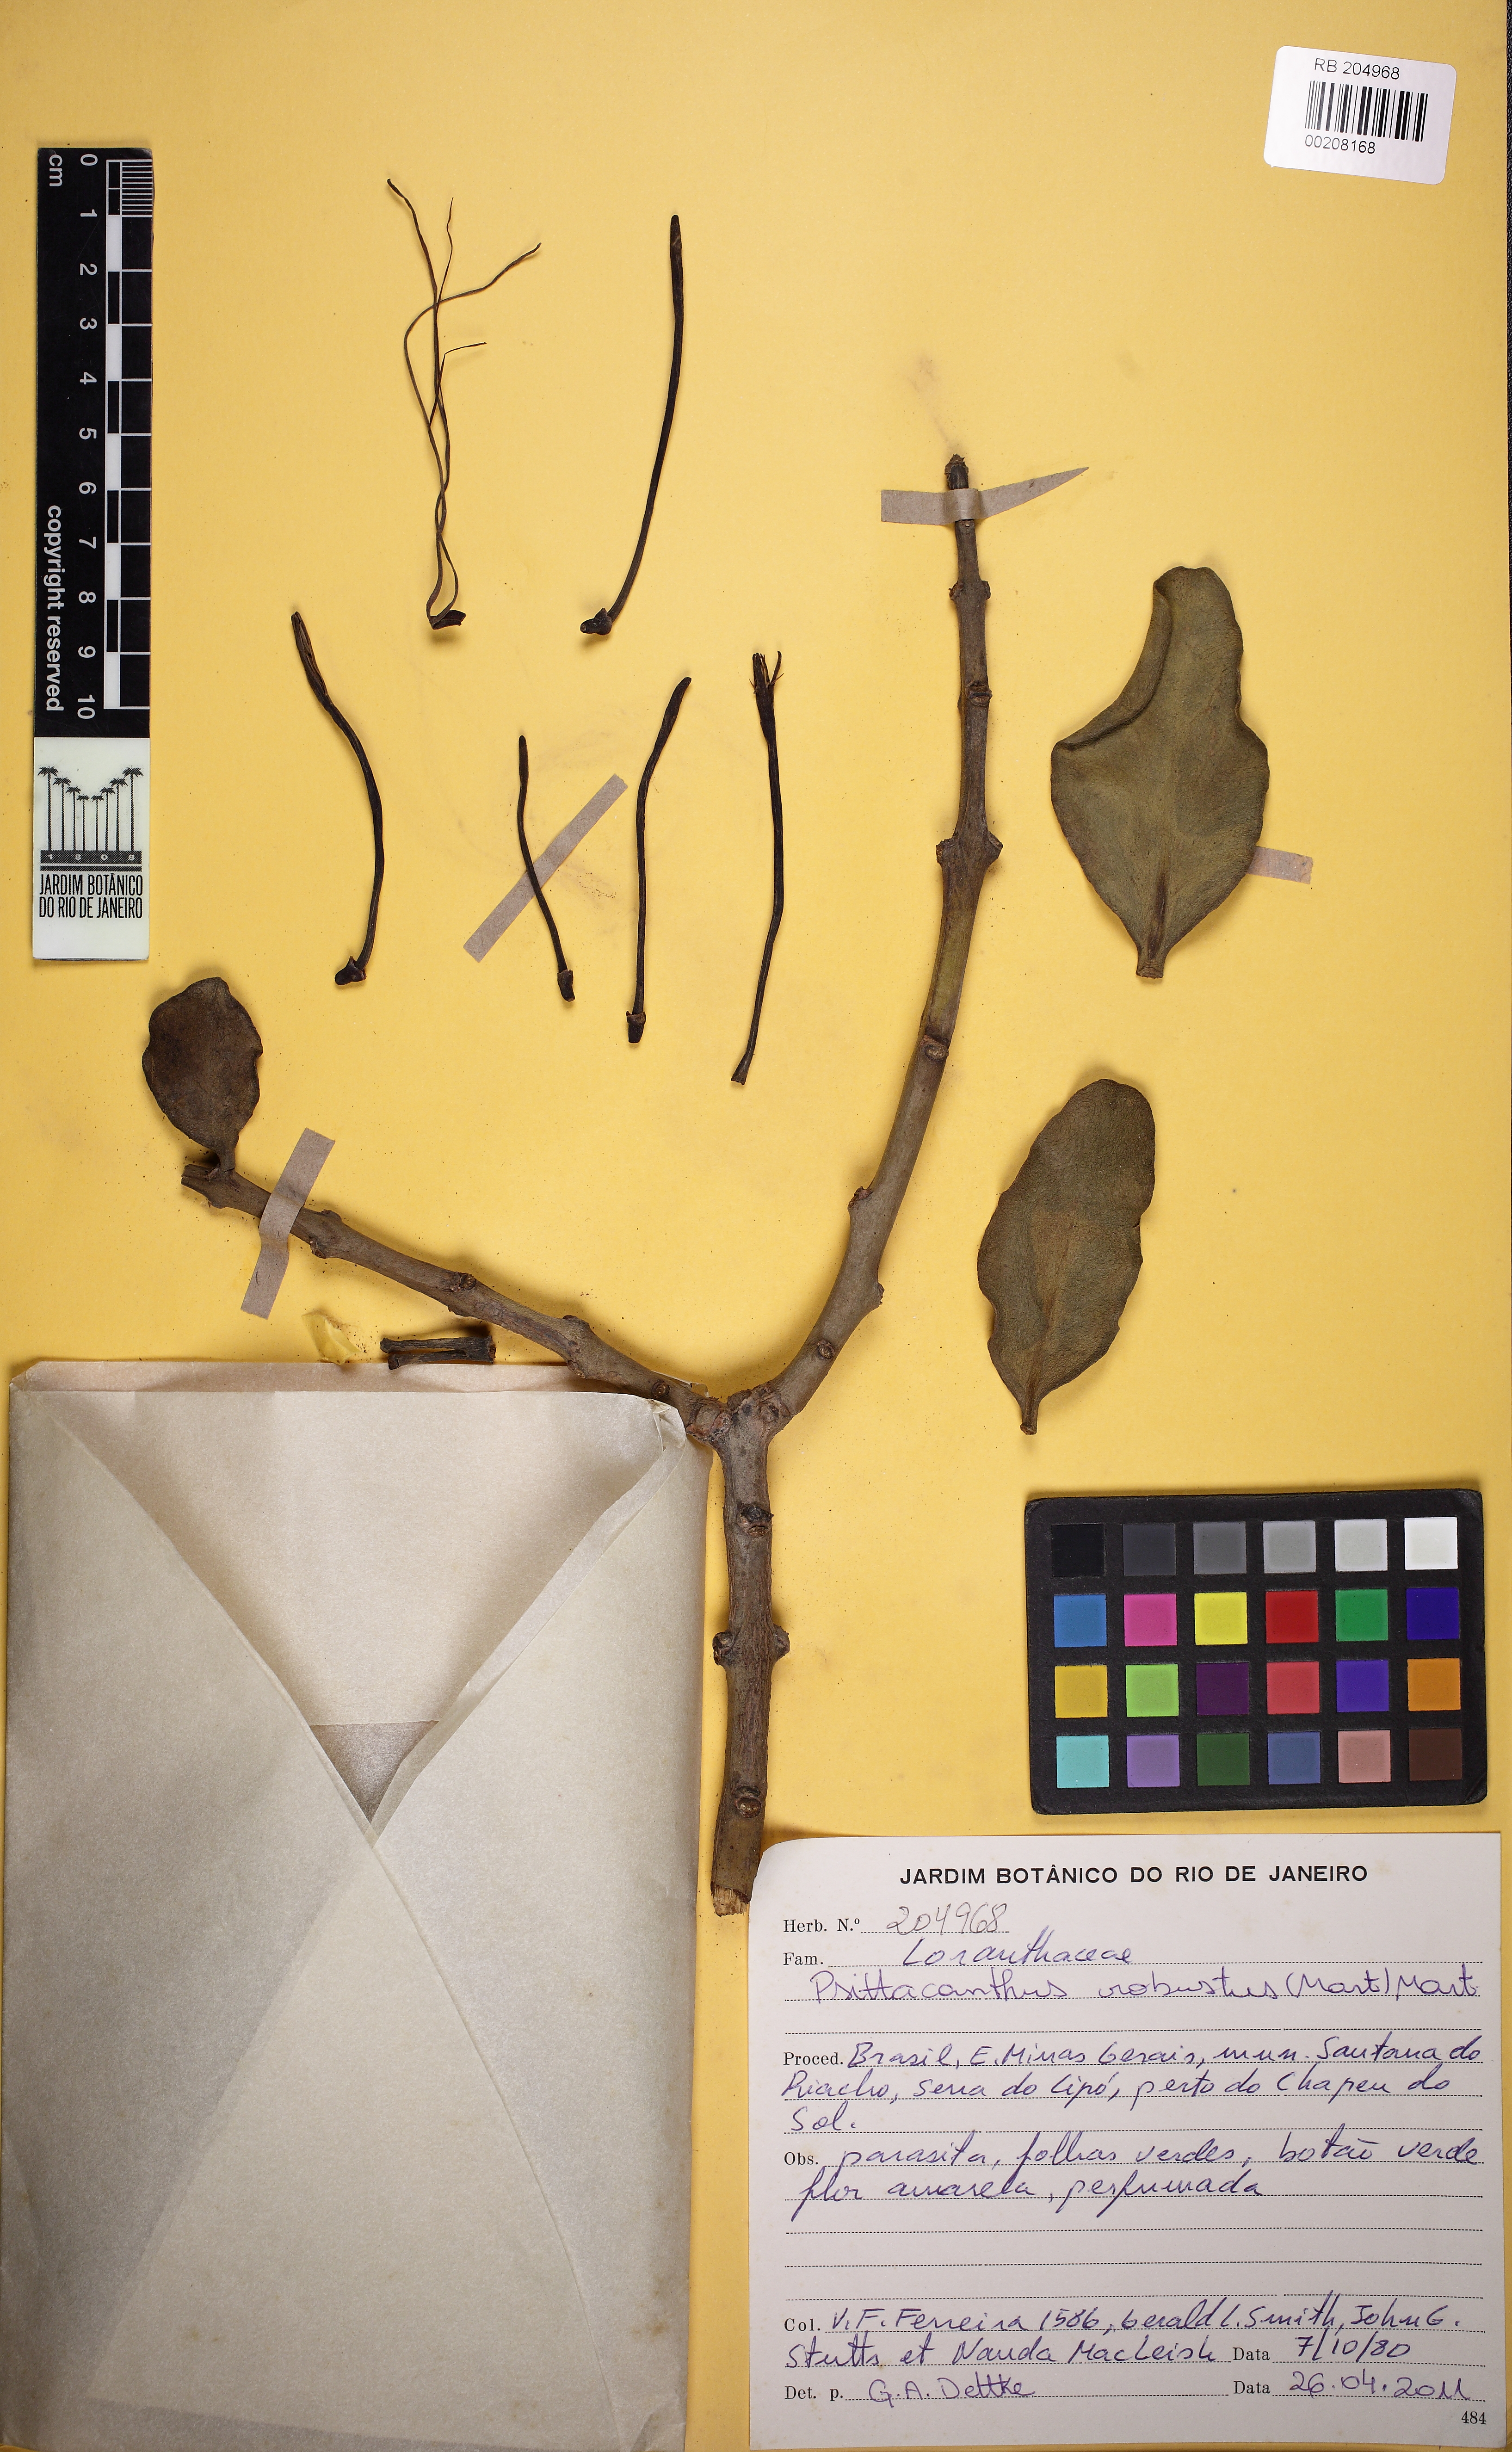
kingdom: Plantae
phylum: Tracheophyta
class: Magnoliopsida
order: Santalales
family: Loranthaceae
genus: Psittacanthus
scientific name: Psittacanthus robustus
